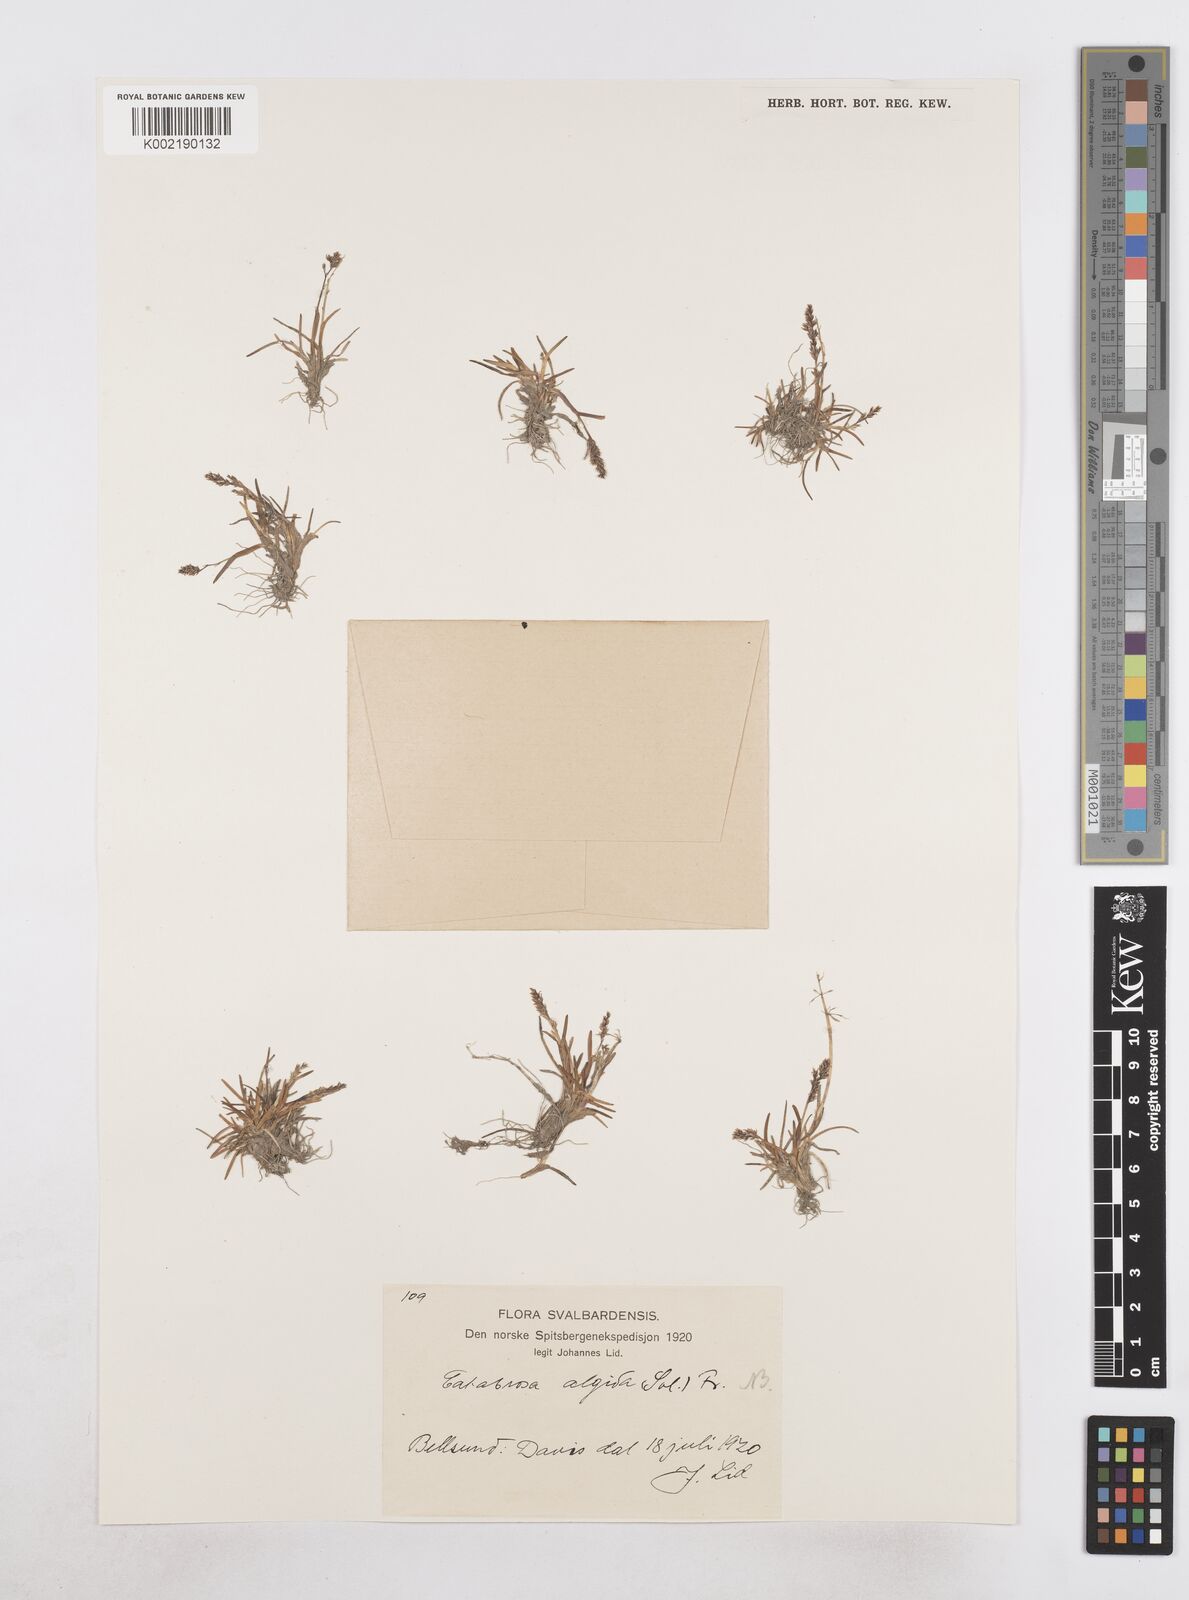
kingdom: Plantae
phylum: Tracheophyta
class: Liliopsida
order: Poales
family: Poaceae
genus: Phippsia
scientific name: Phippsia algida
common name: Ice grass
